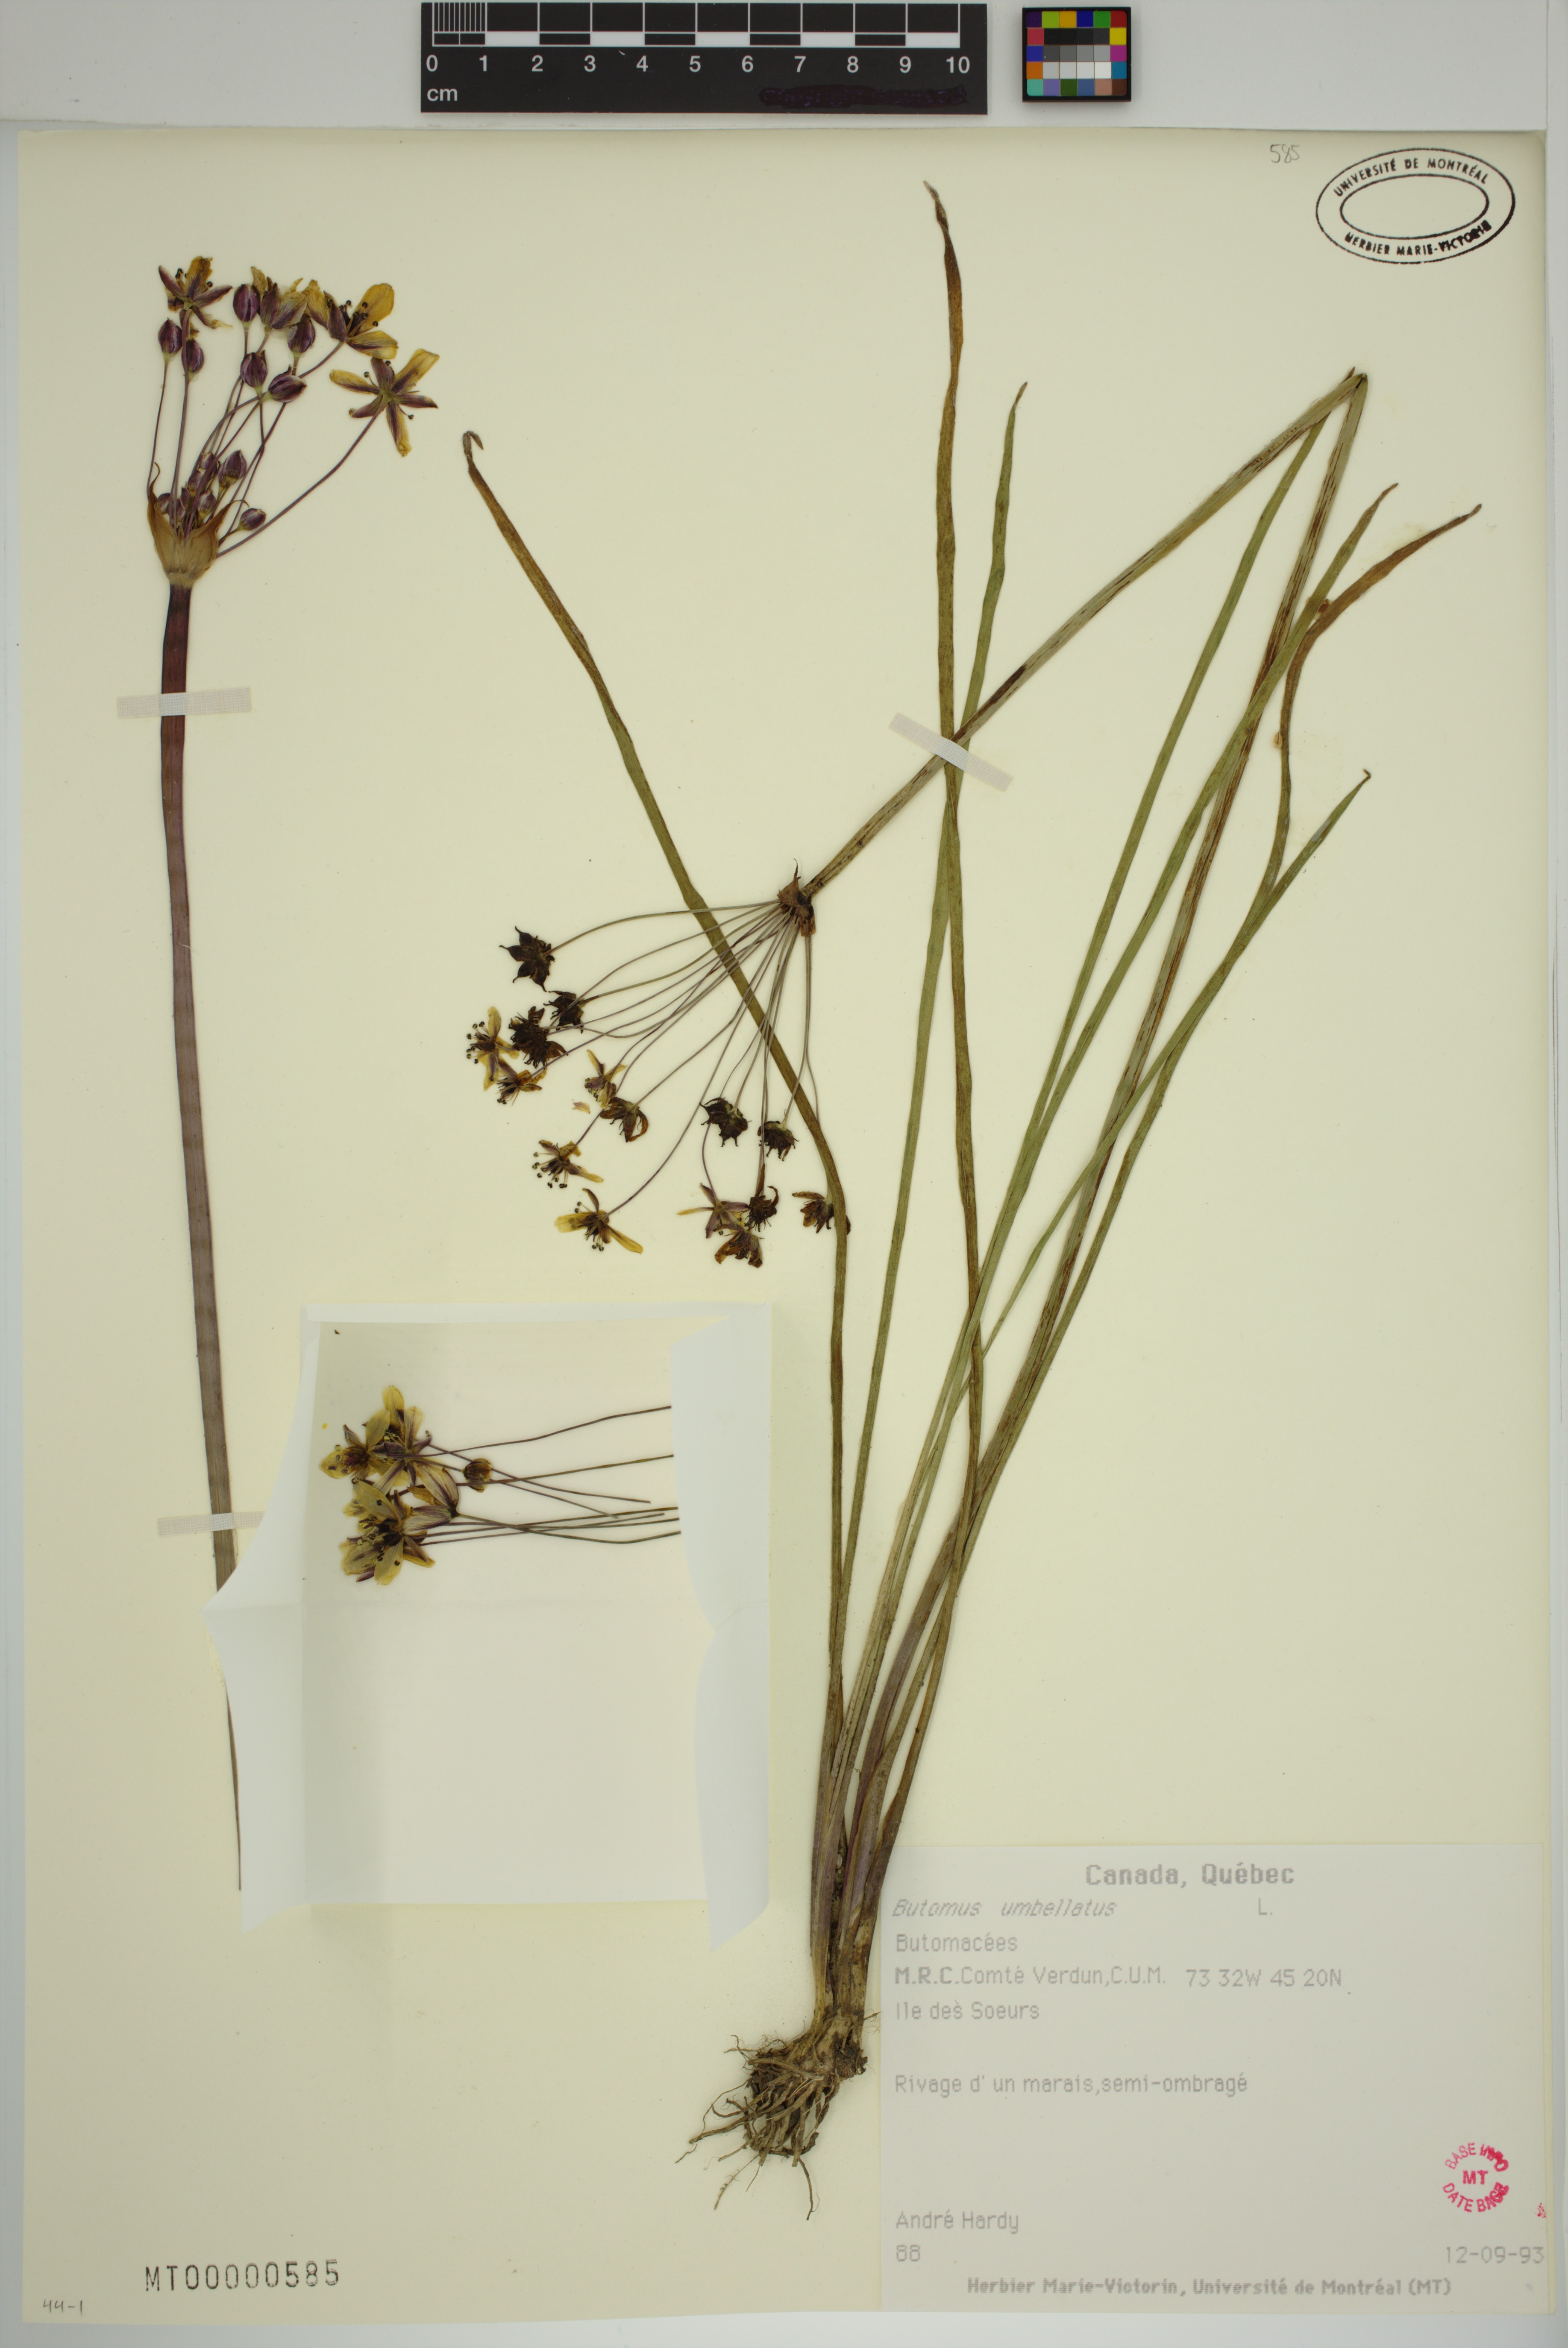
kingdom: Plantae
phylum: Tracheophyta
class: Liliopsida
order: Alismatales
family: Butomaceae
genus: Butomus
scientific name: Butomus umbellatus
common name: Flowering-rush
